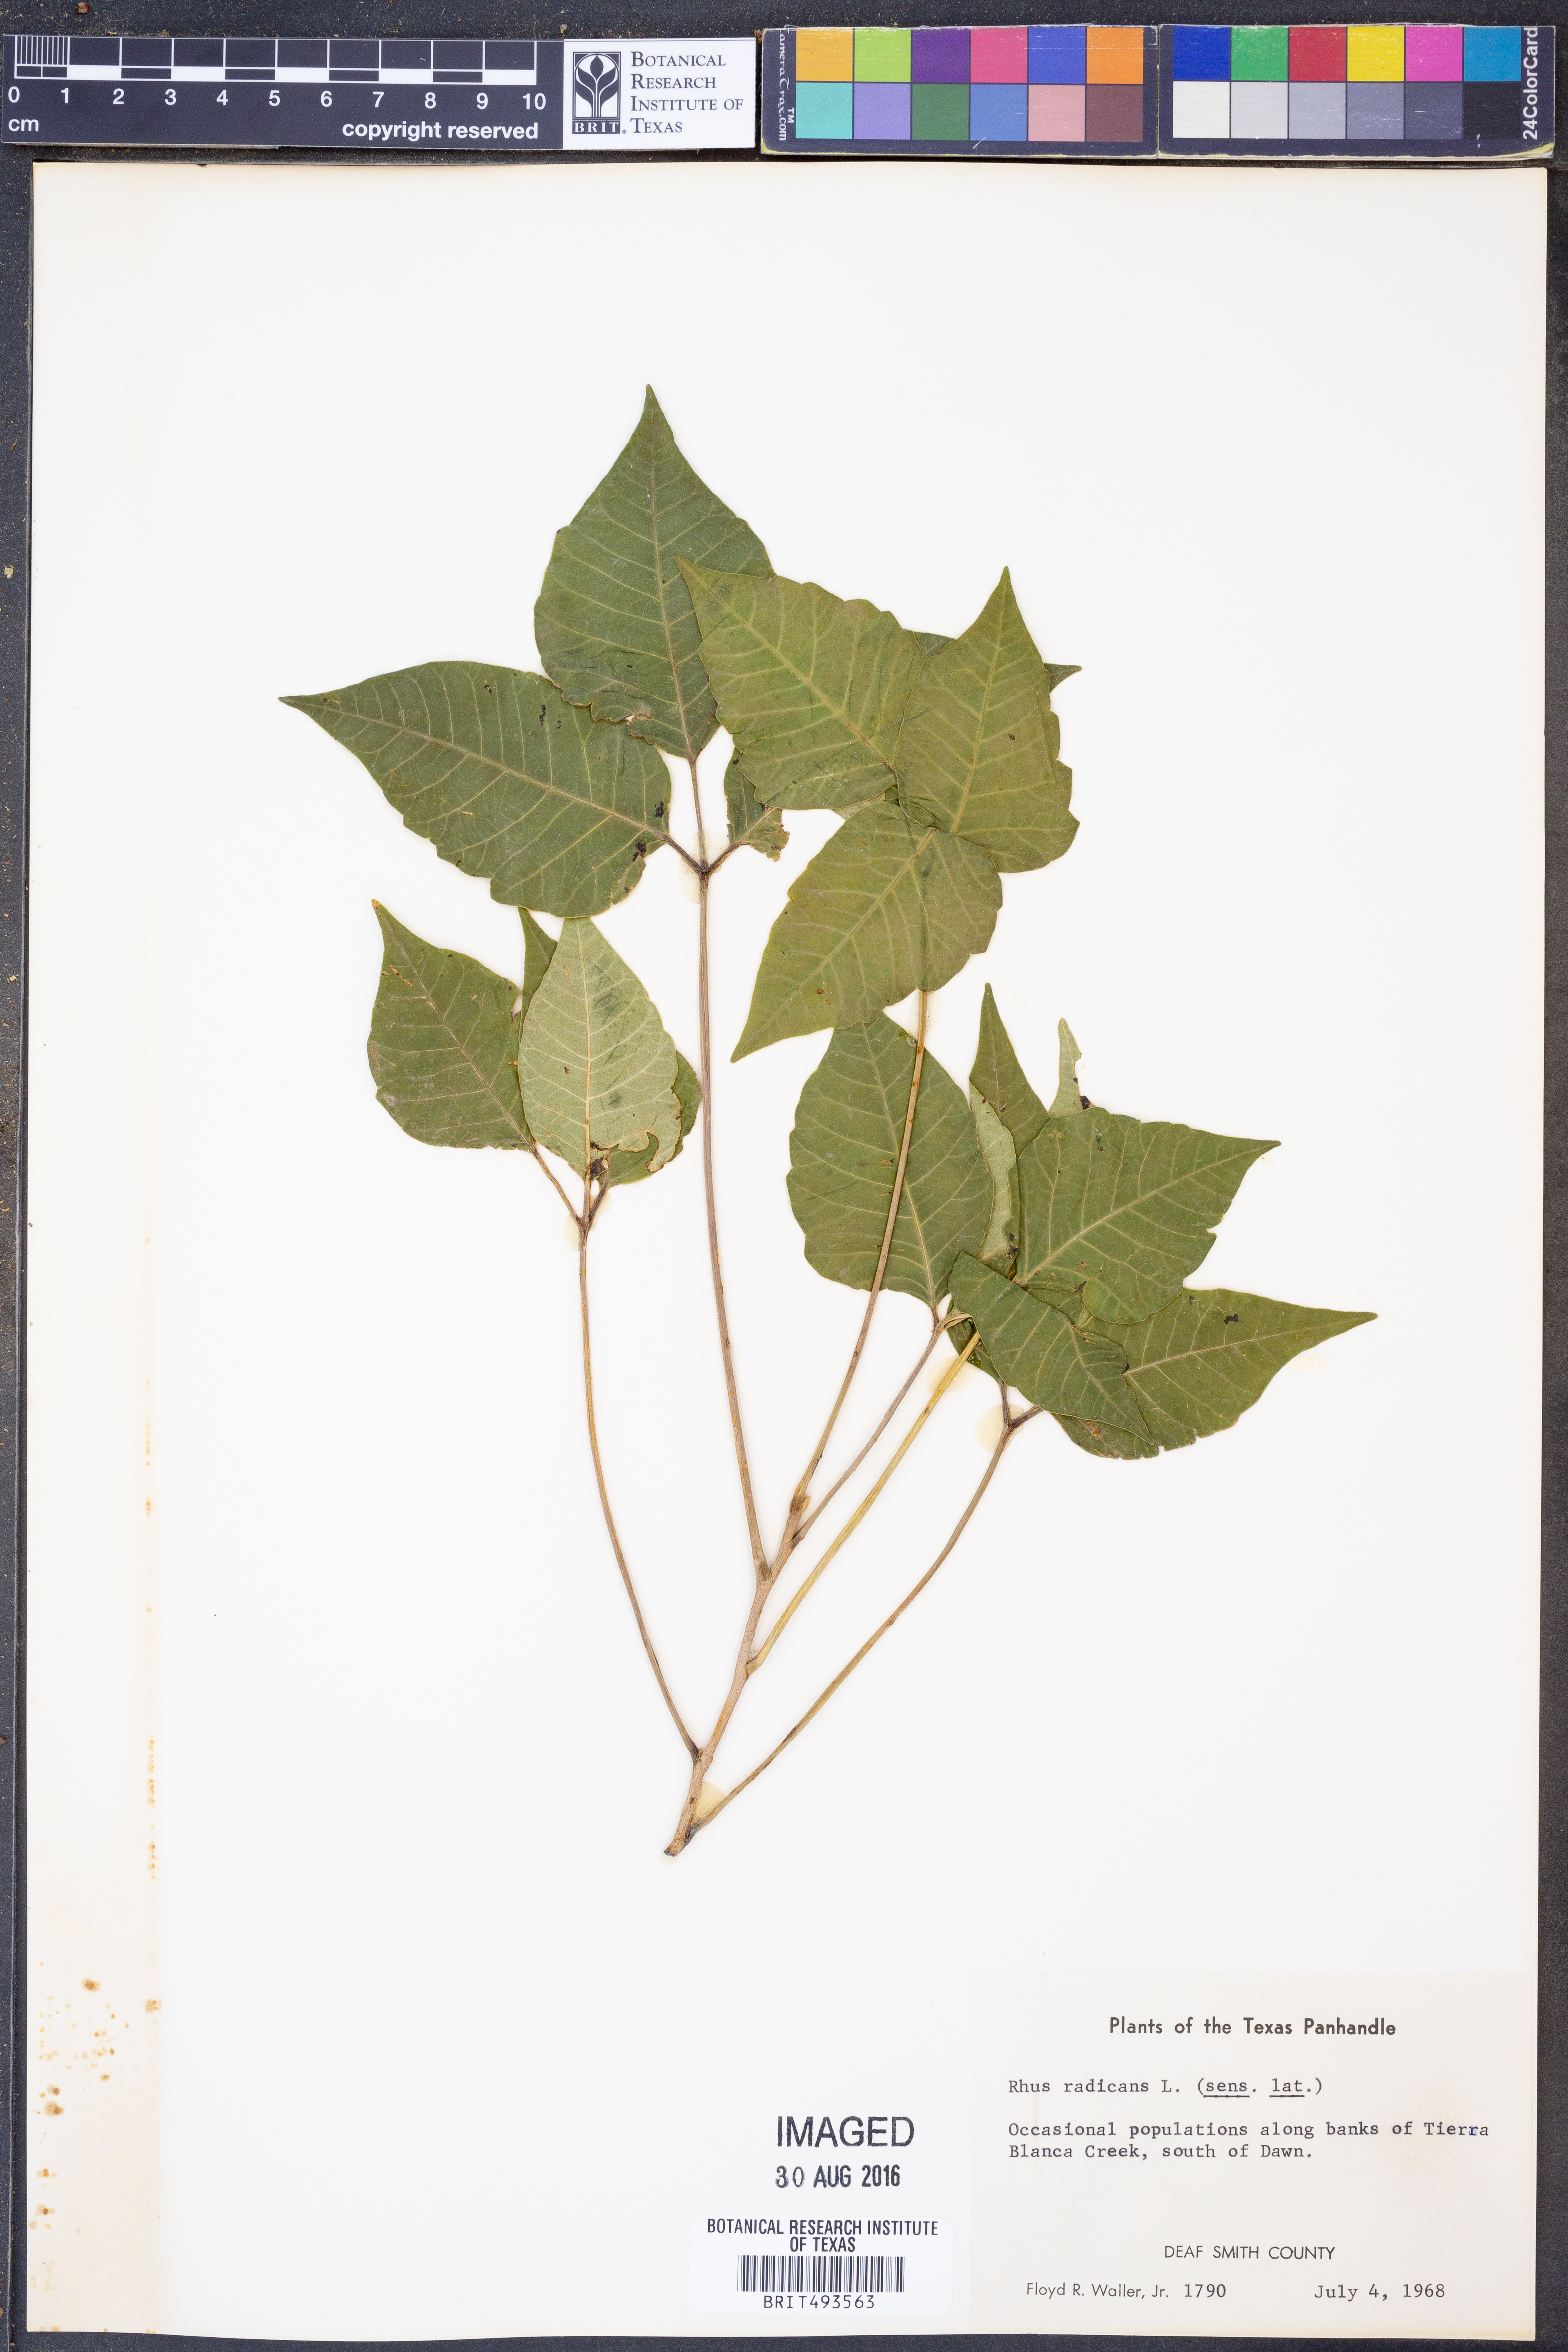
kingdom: Plantae
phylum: Tracheophyta
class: Magnoliopsida
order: Sapindales
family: Anacardiaceae
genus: Toxicodendron
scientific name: Toxicodendron radicans
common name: Poison ivy
